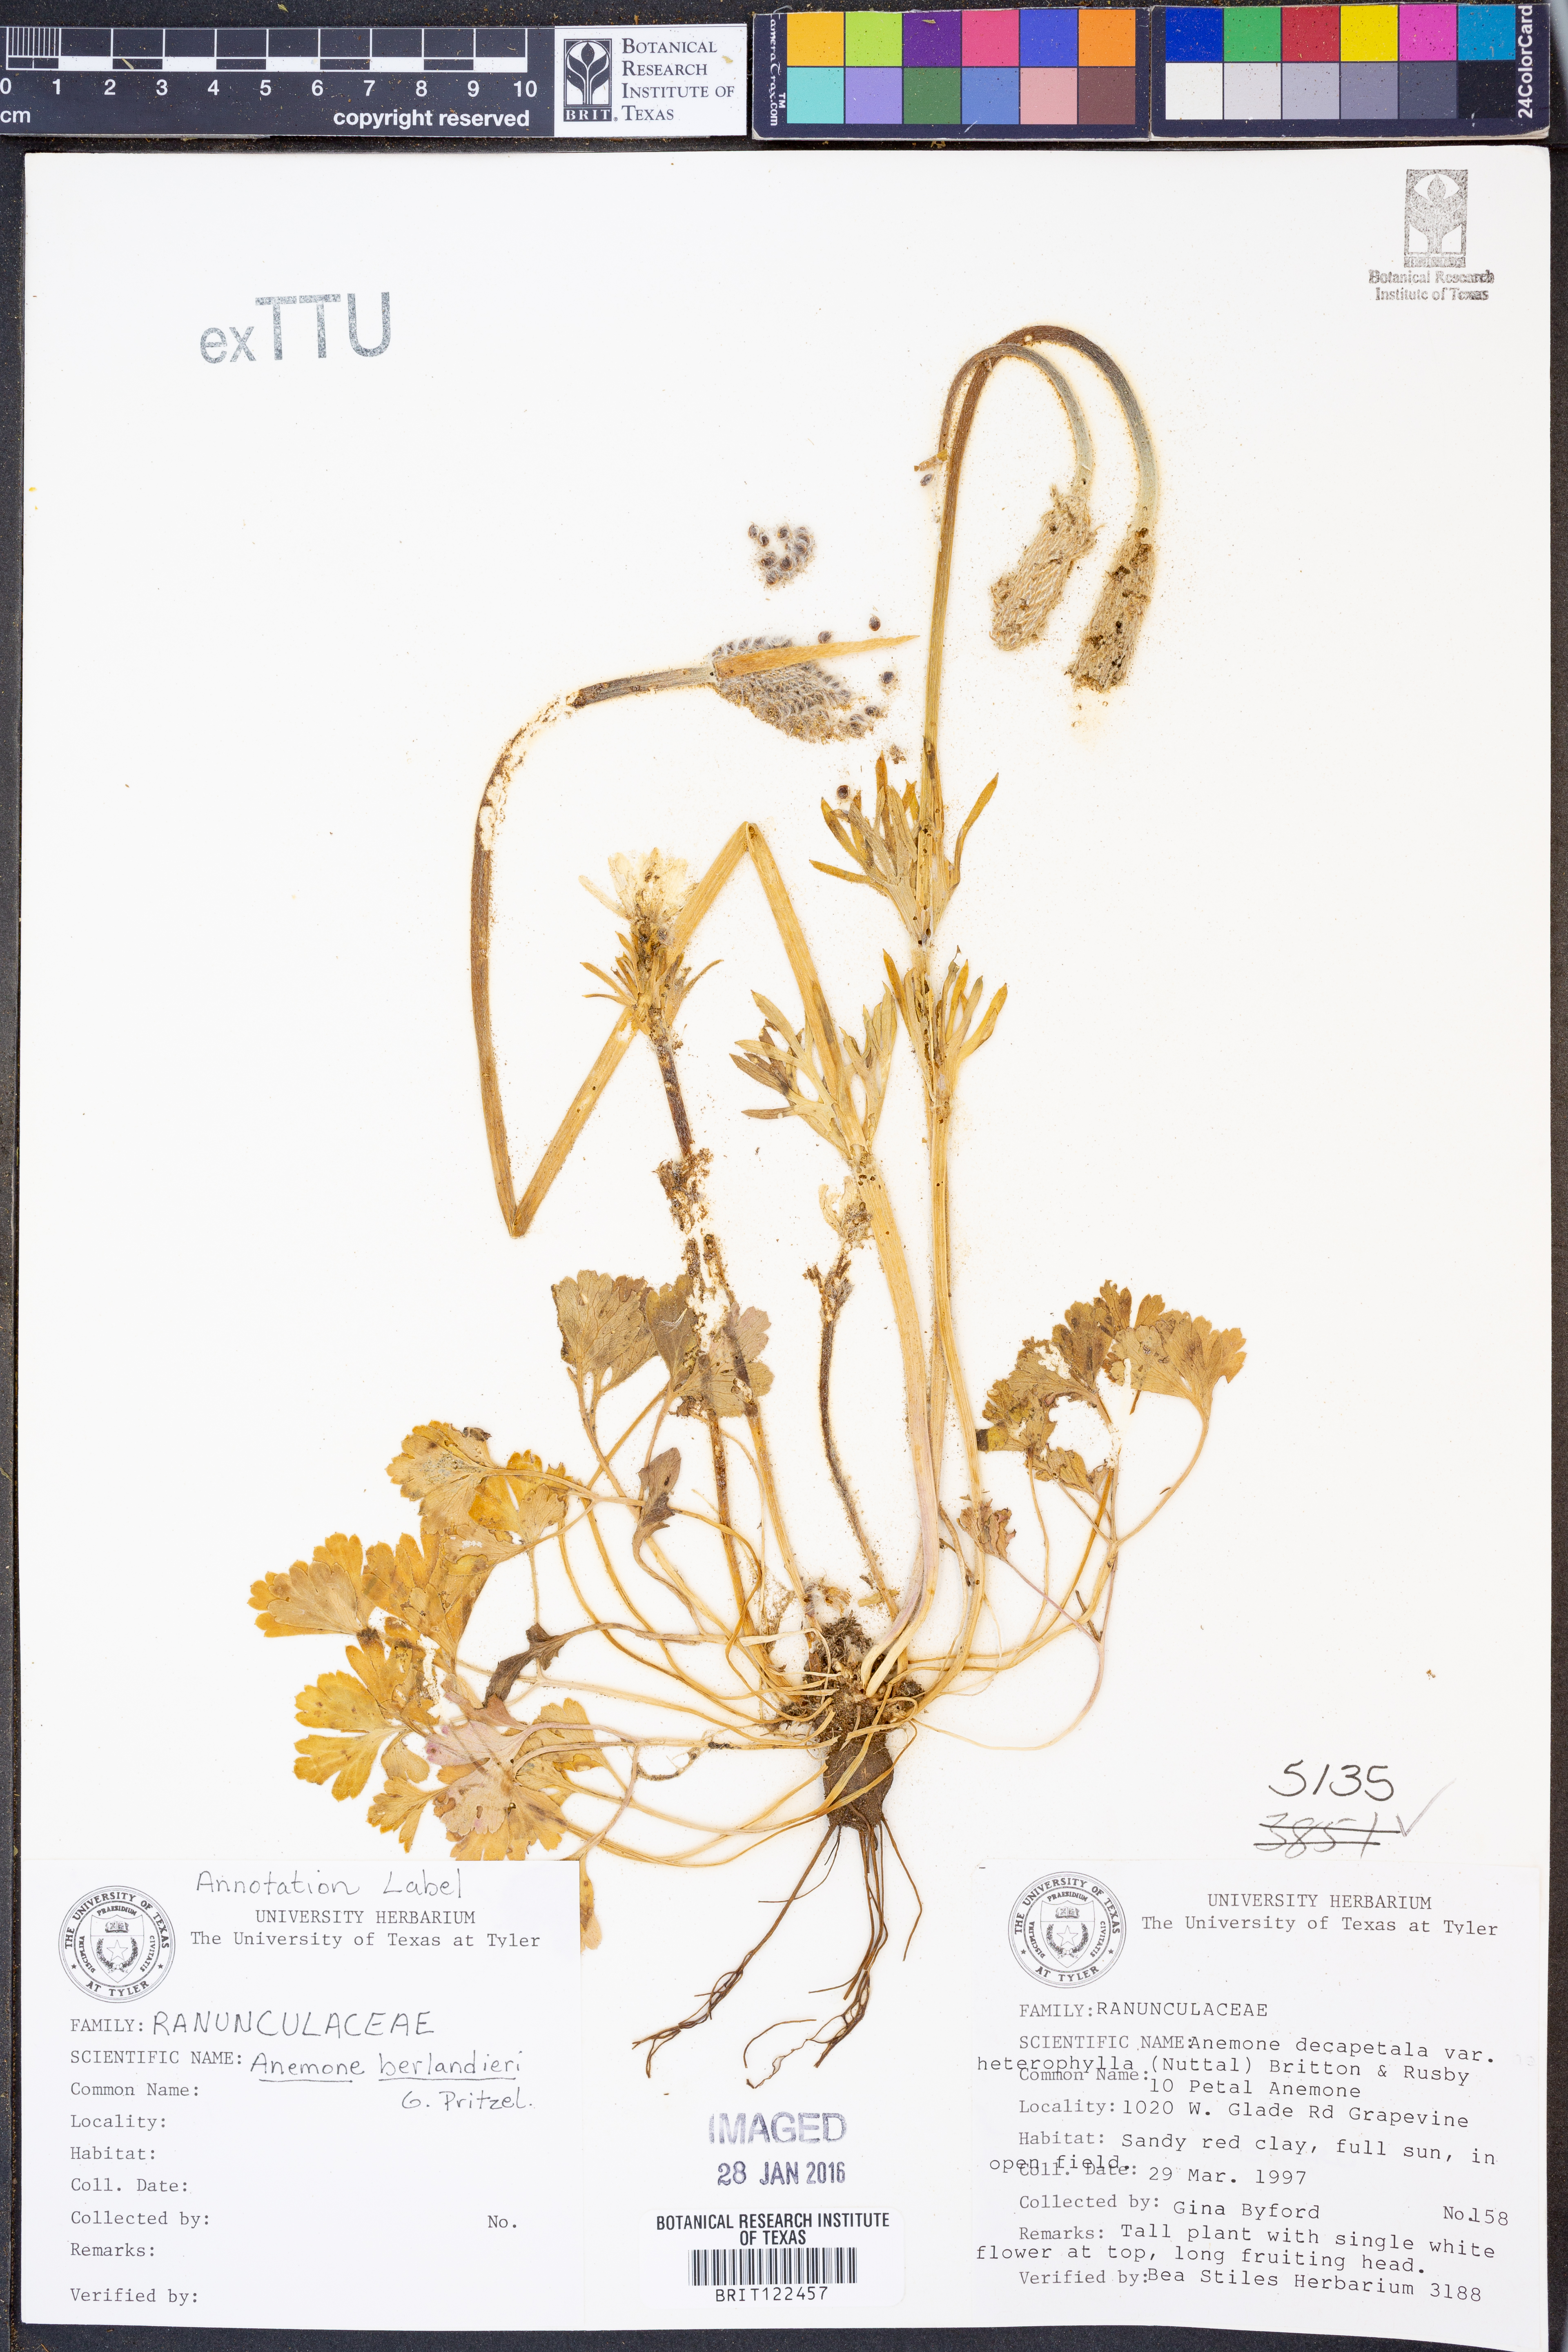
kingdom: Plantae
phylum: Tracheophyta
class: Magnoliopsida
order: Ranunculales
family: Ranunculaceae
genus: Anemone
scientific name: Anemone berlandieri
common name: Ten-petal anemone
